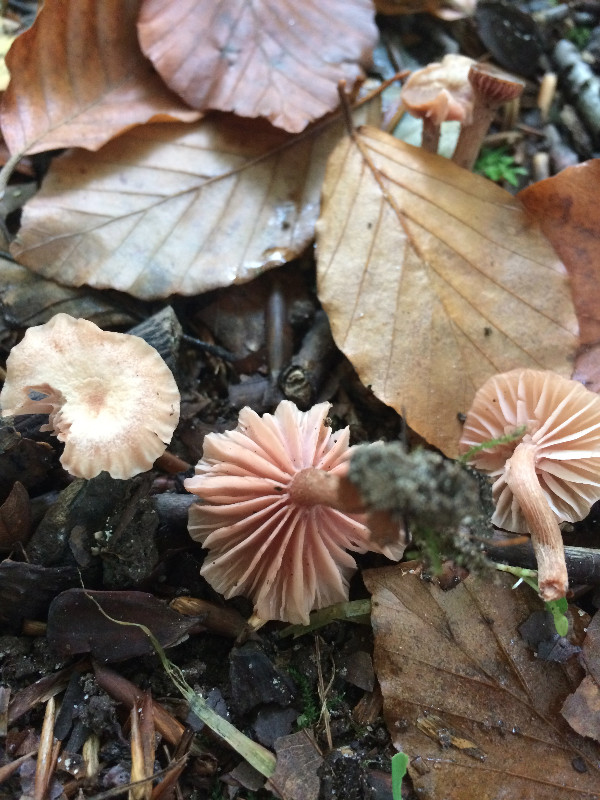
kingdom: Fungi
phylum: Basidiomycota
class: Agaricomycetes
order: Agaricales
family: Hydnangiaceae
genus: Laccaria
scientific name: Laccaria tortilis
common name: krybende ametysthat
